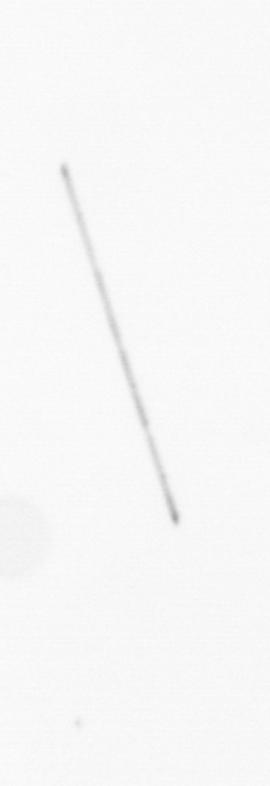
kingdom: Chromista
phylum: Ochrophyta
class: Bacillariophyceae
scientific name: Bacillariophyceae
